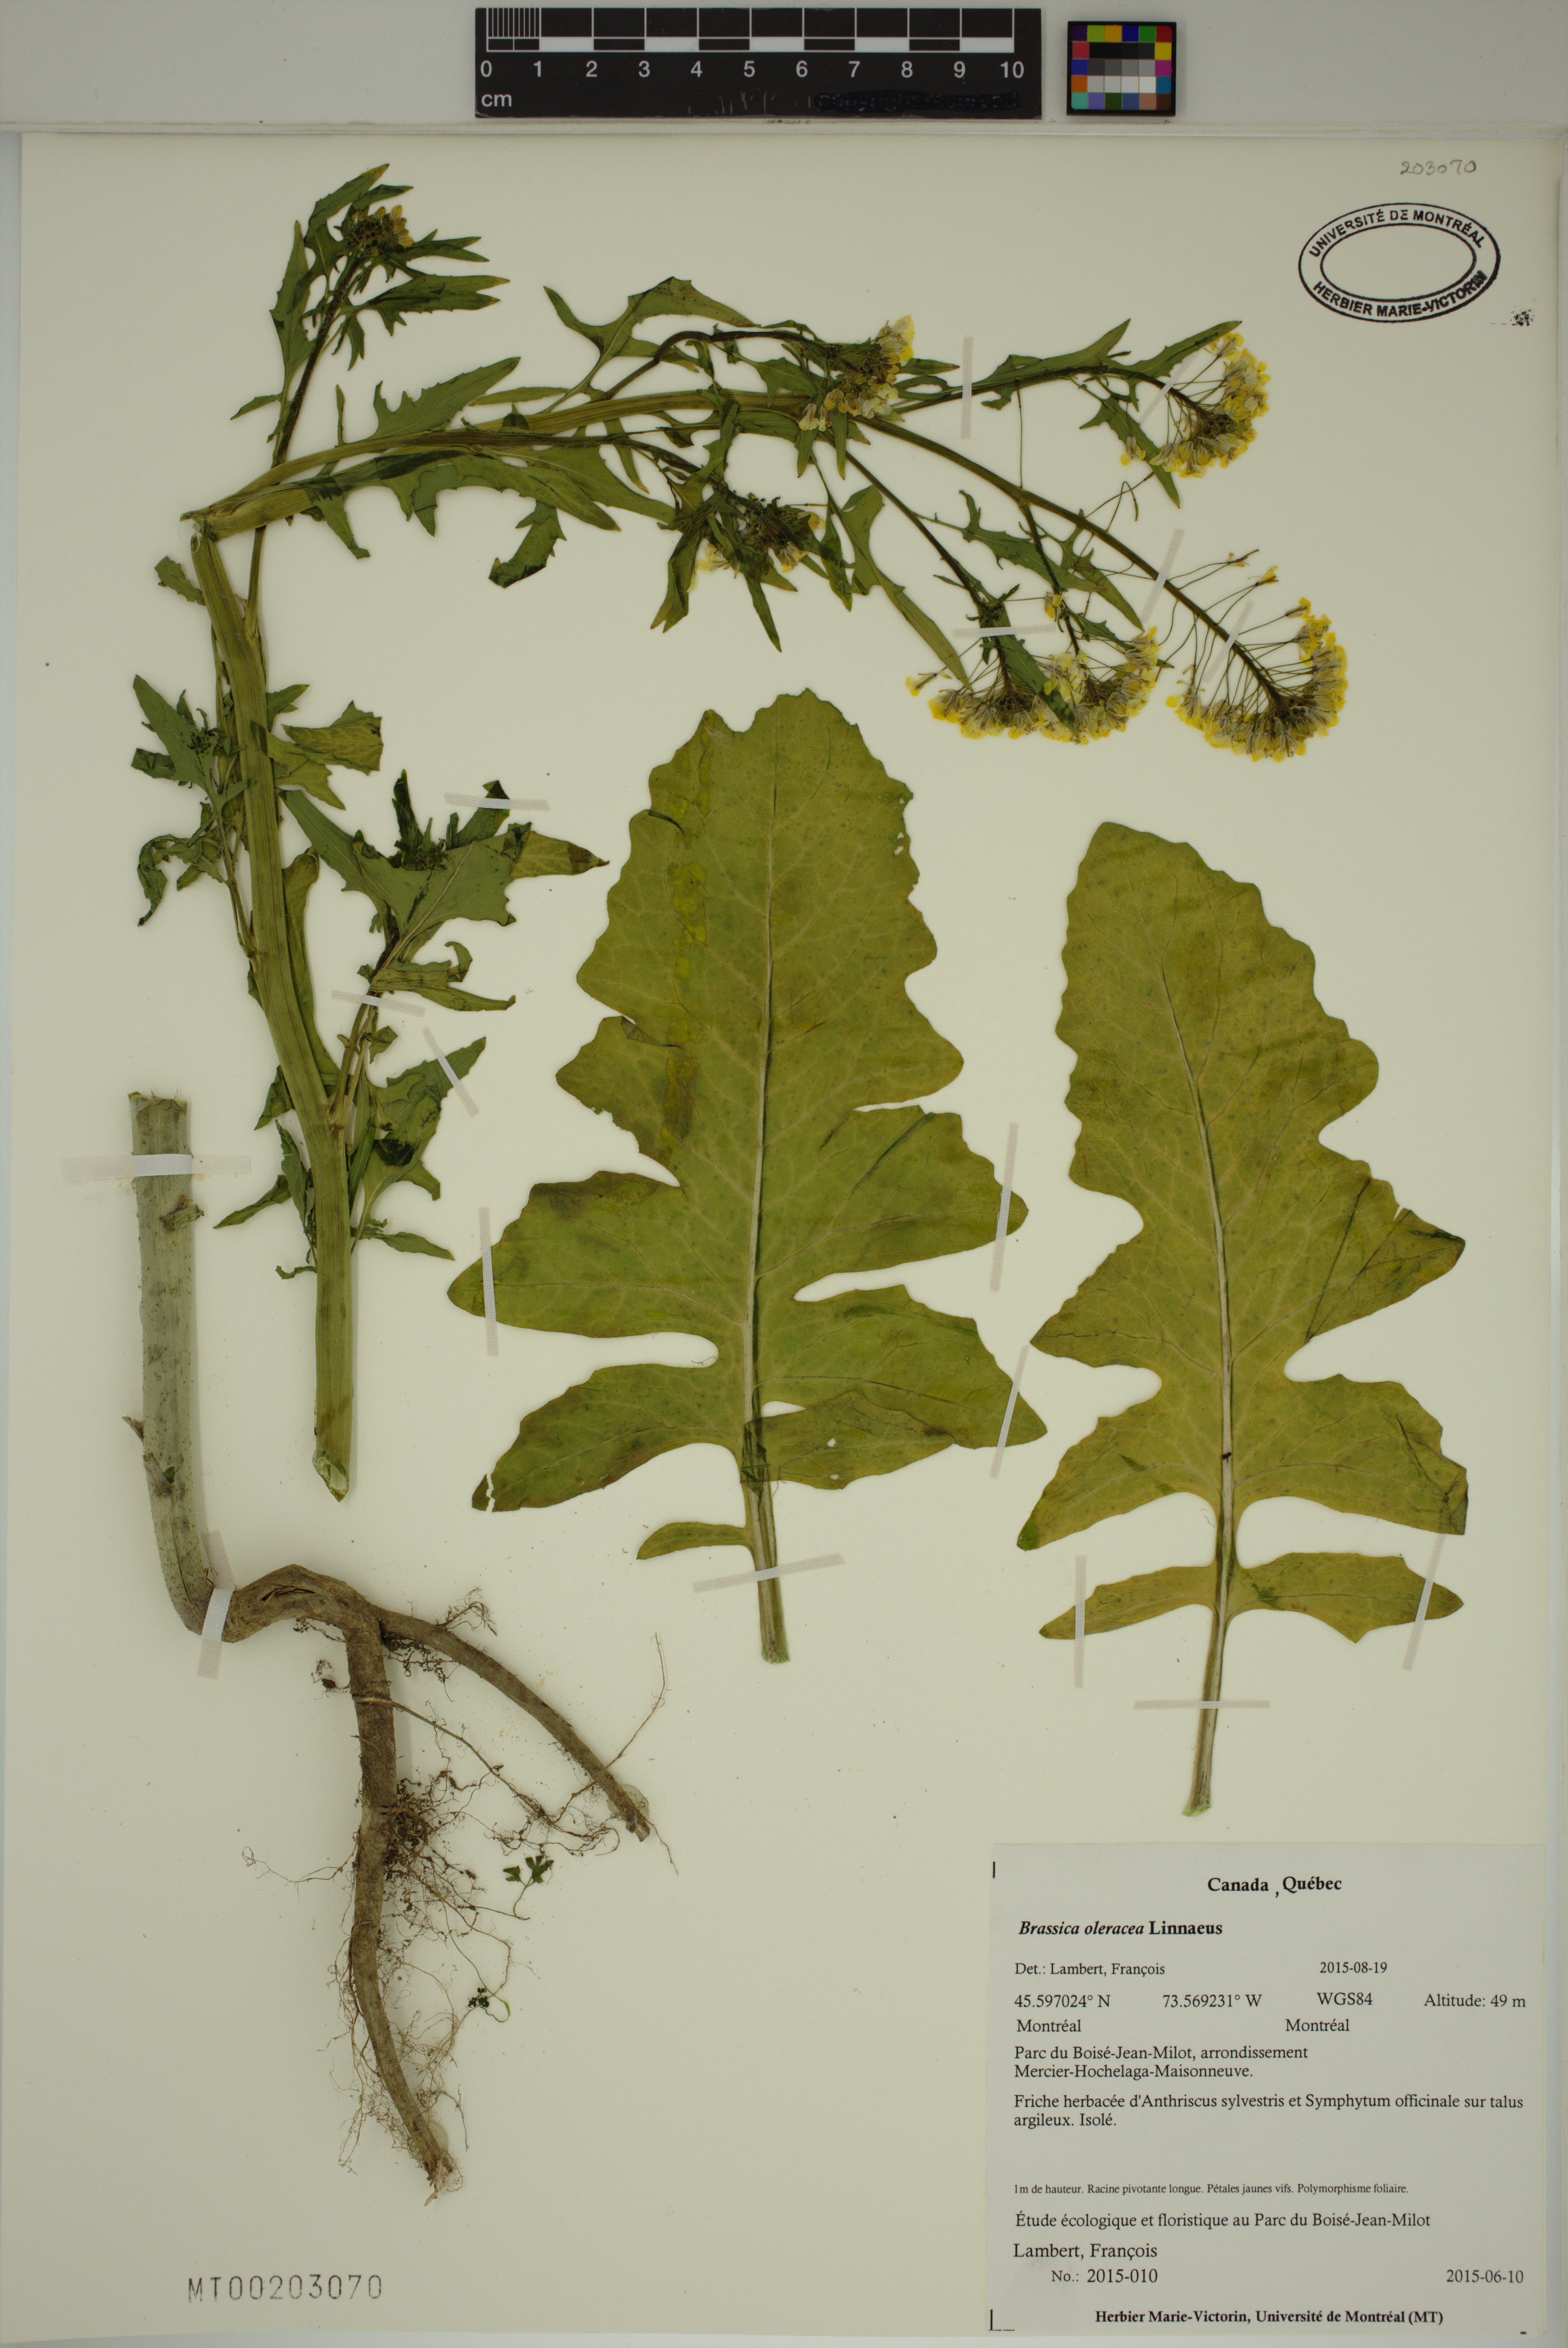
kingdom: Plantae
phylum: Tracheophyta
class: Magnoliopsida
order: Brassicales
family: Brassicaceae
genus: Brassica
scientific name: Brassica oleracea
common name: Cabbage
